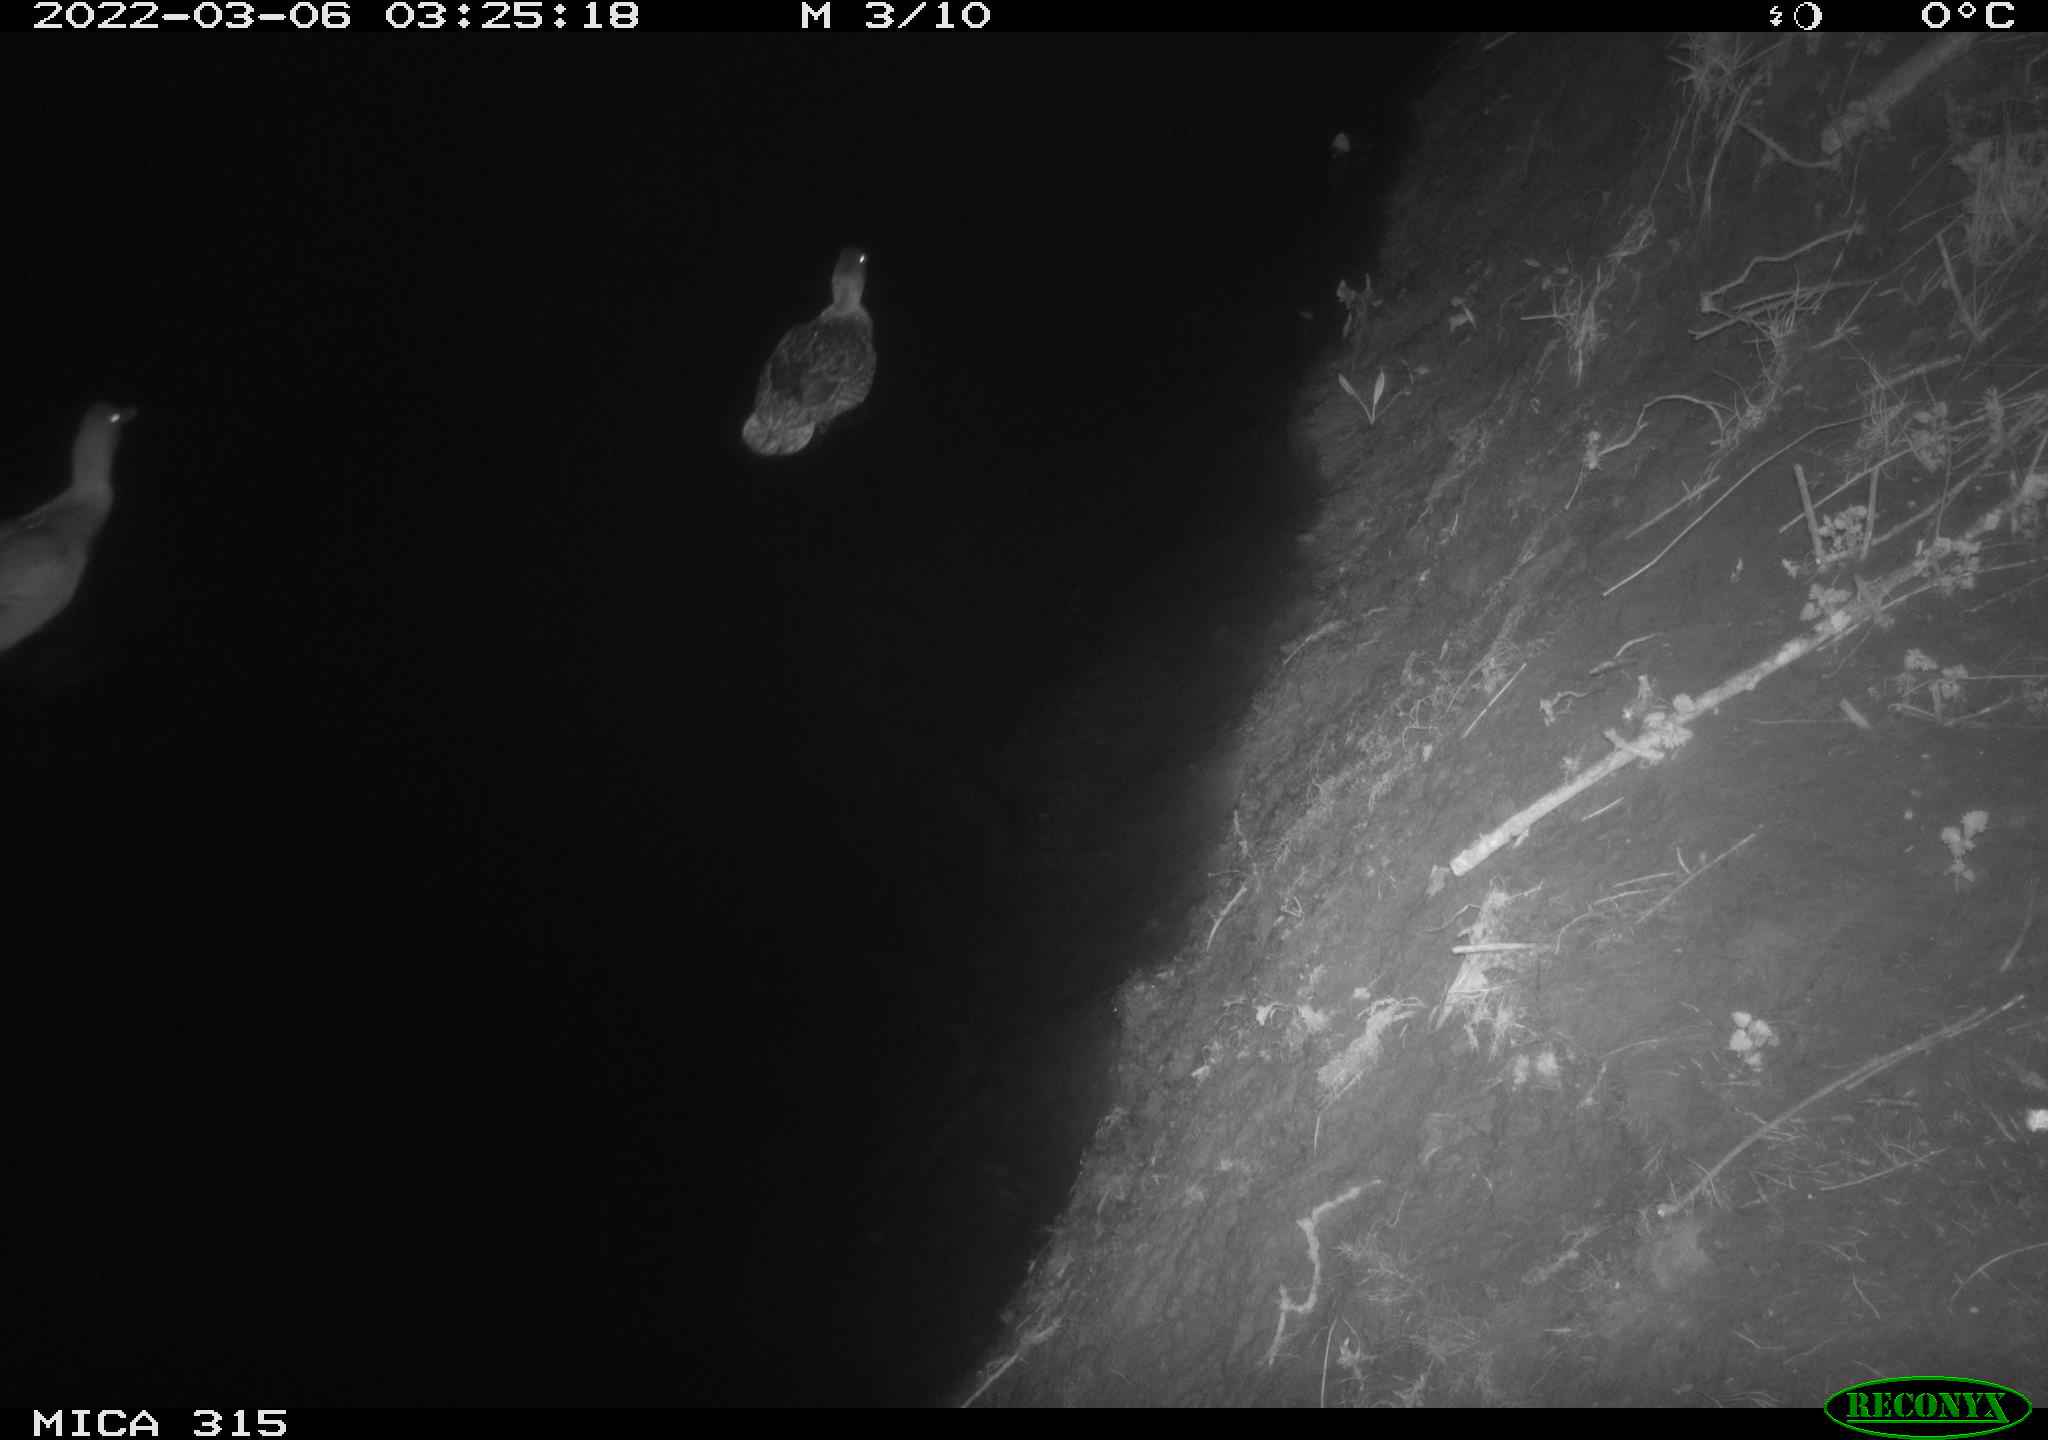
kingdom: Animalia
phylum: Chordata
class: Aves
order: Anseriformes
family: Anatidae
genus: Anas
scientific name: Anas platyrhynchos
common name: Mallard
